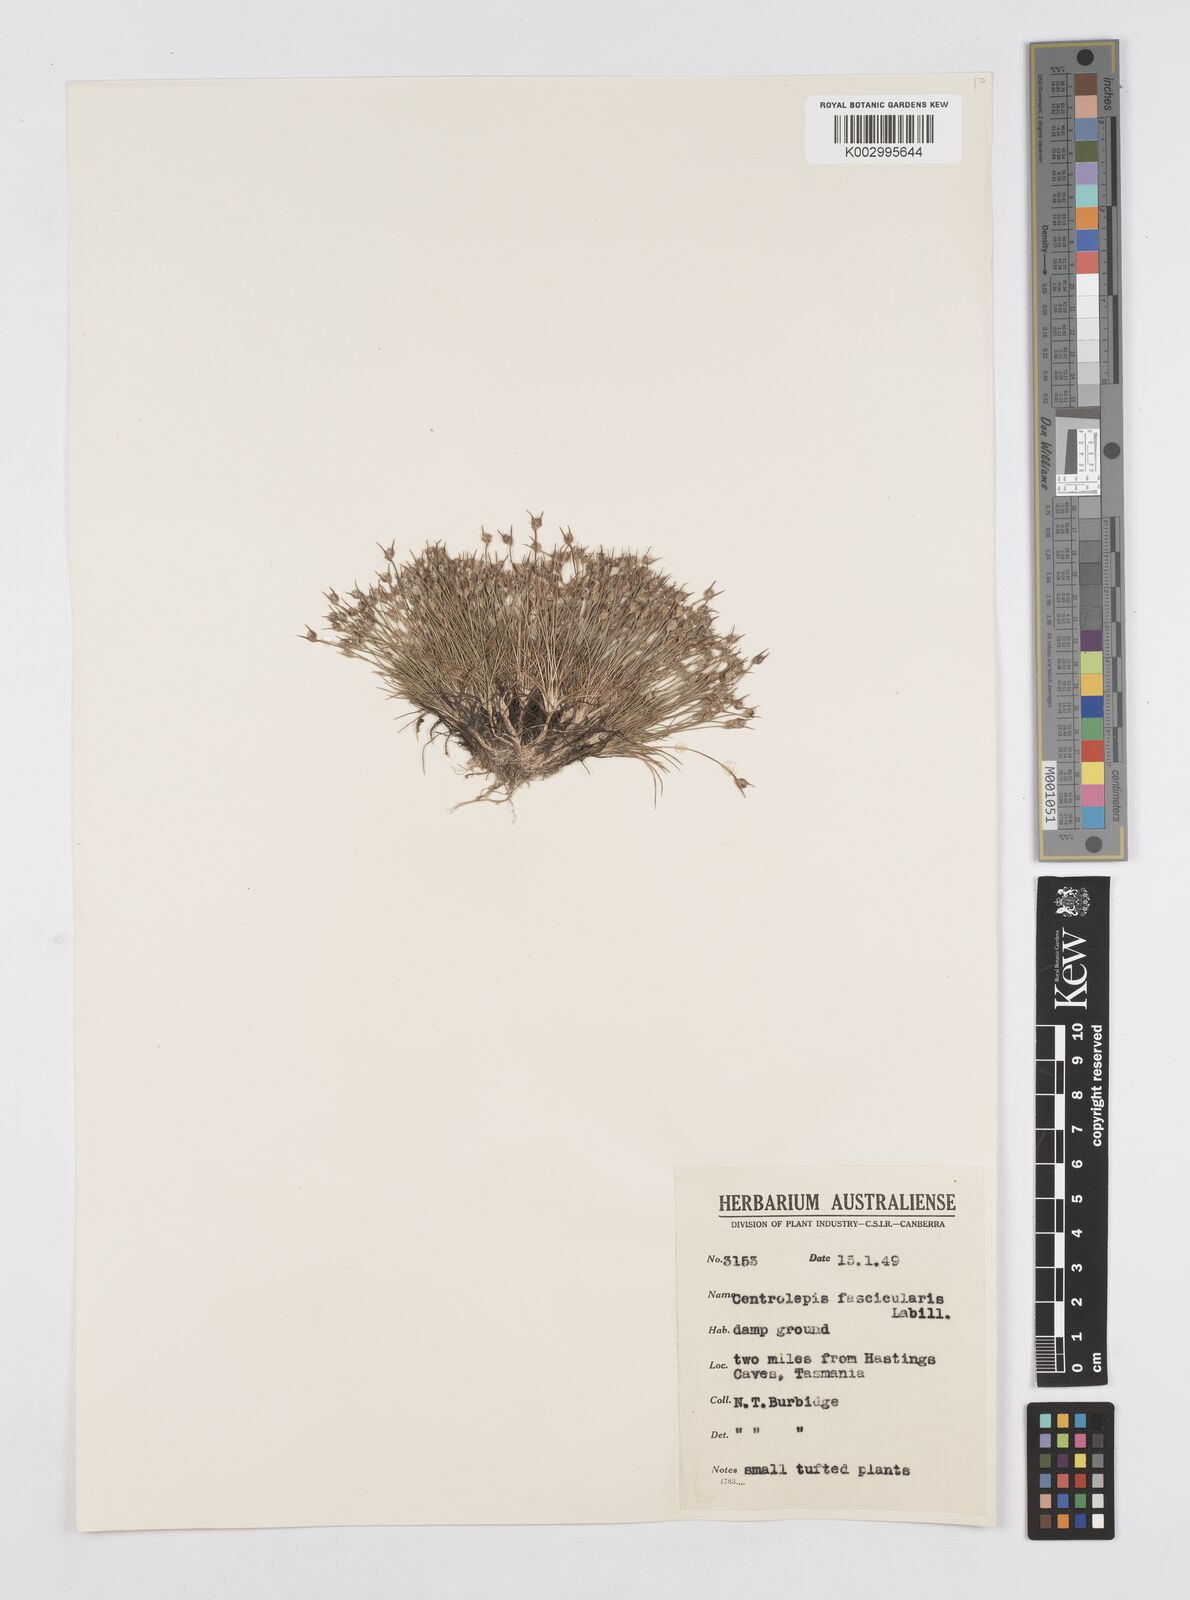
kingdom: Plantae
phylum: Tracheophyta
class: Liliopsida
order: Poales
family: Restionaceae
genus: Centrolepis
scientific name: Centrolepis fascicularis
